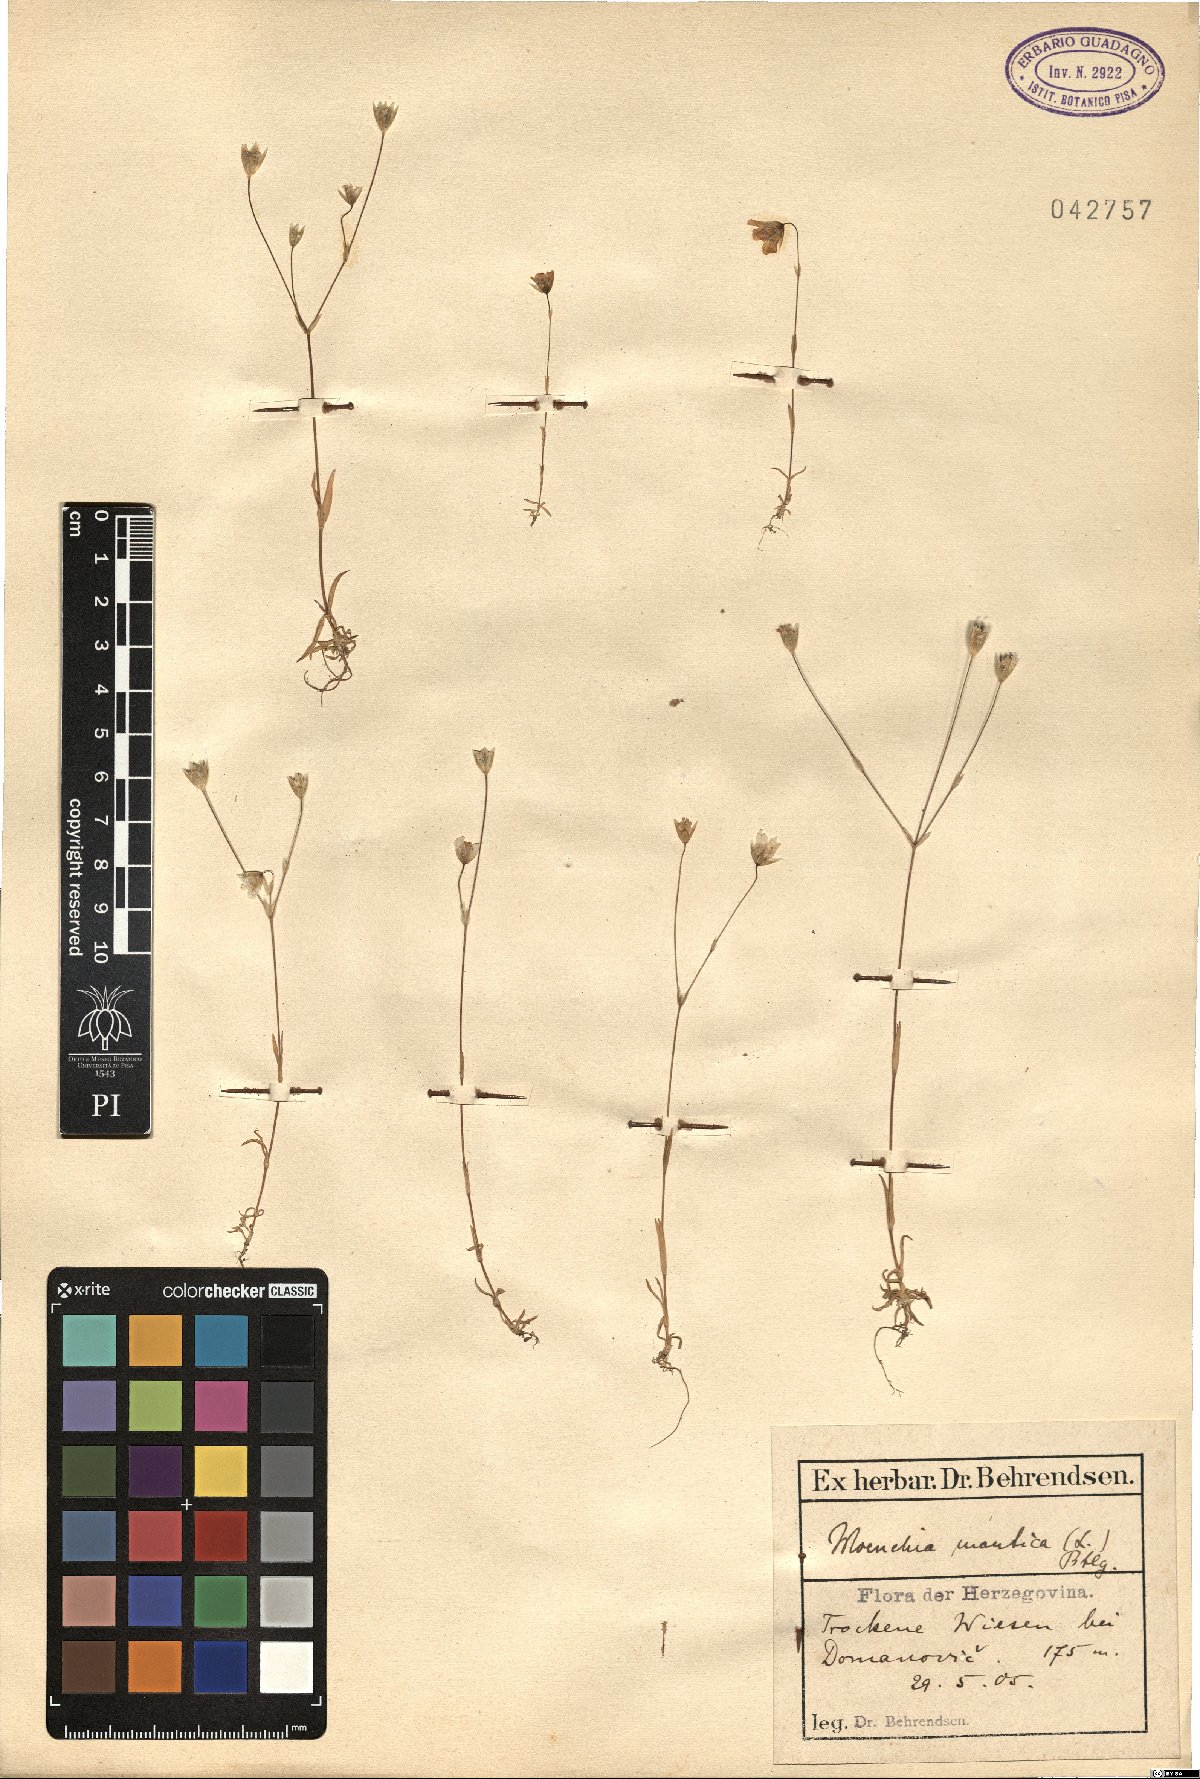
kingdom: Plantae
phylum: Tracheophyta
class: Magnoliopsida
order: Caryophyllales
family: Caryophyllaceae
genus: Moenchia
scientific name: Moenchia mantica
